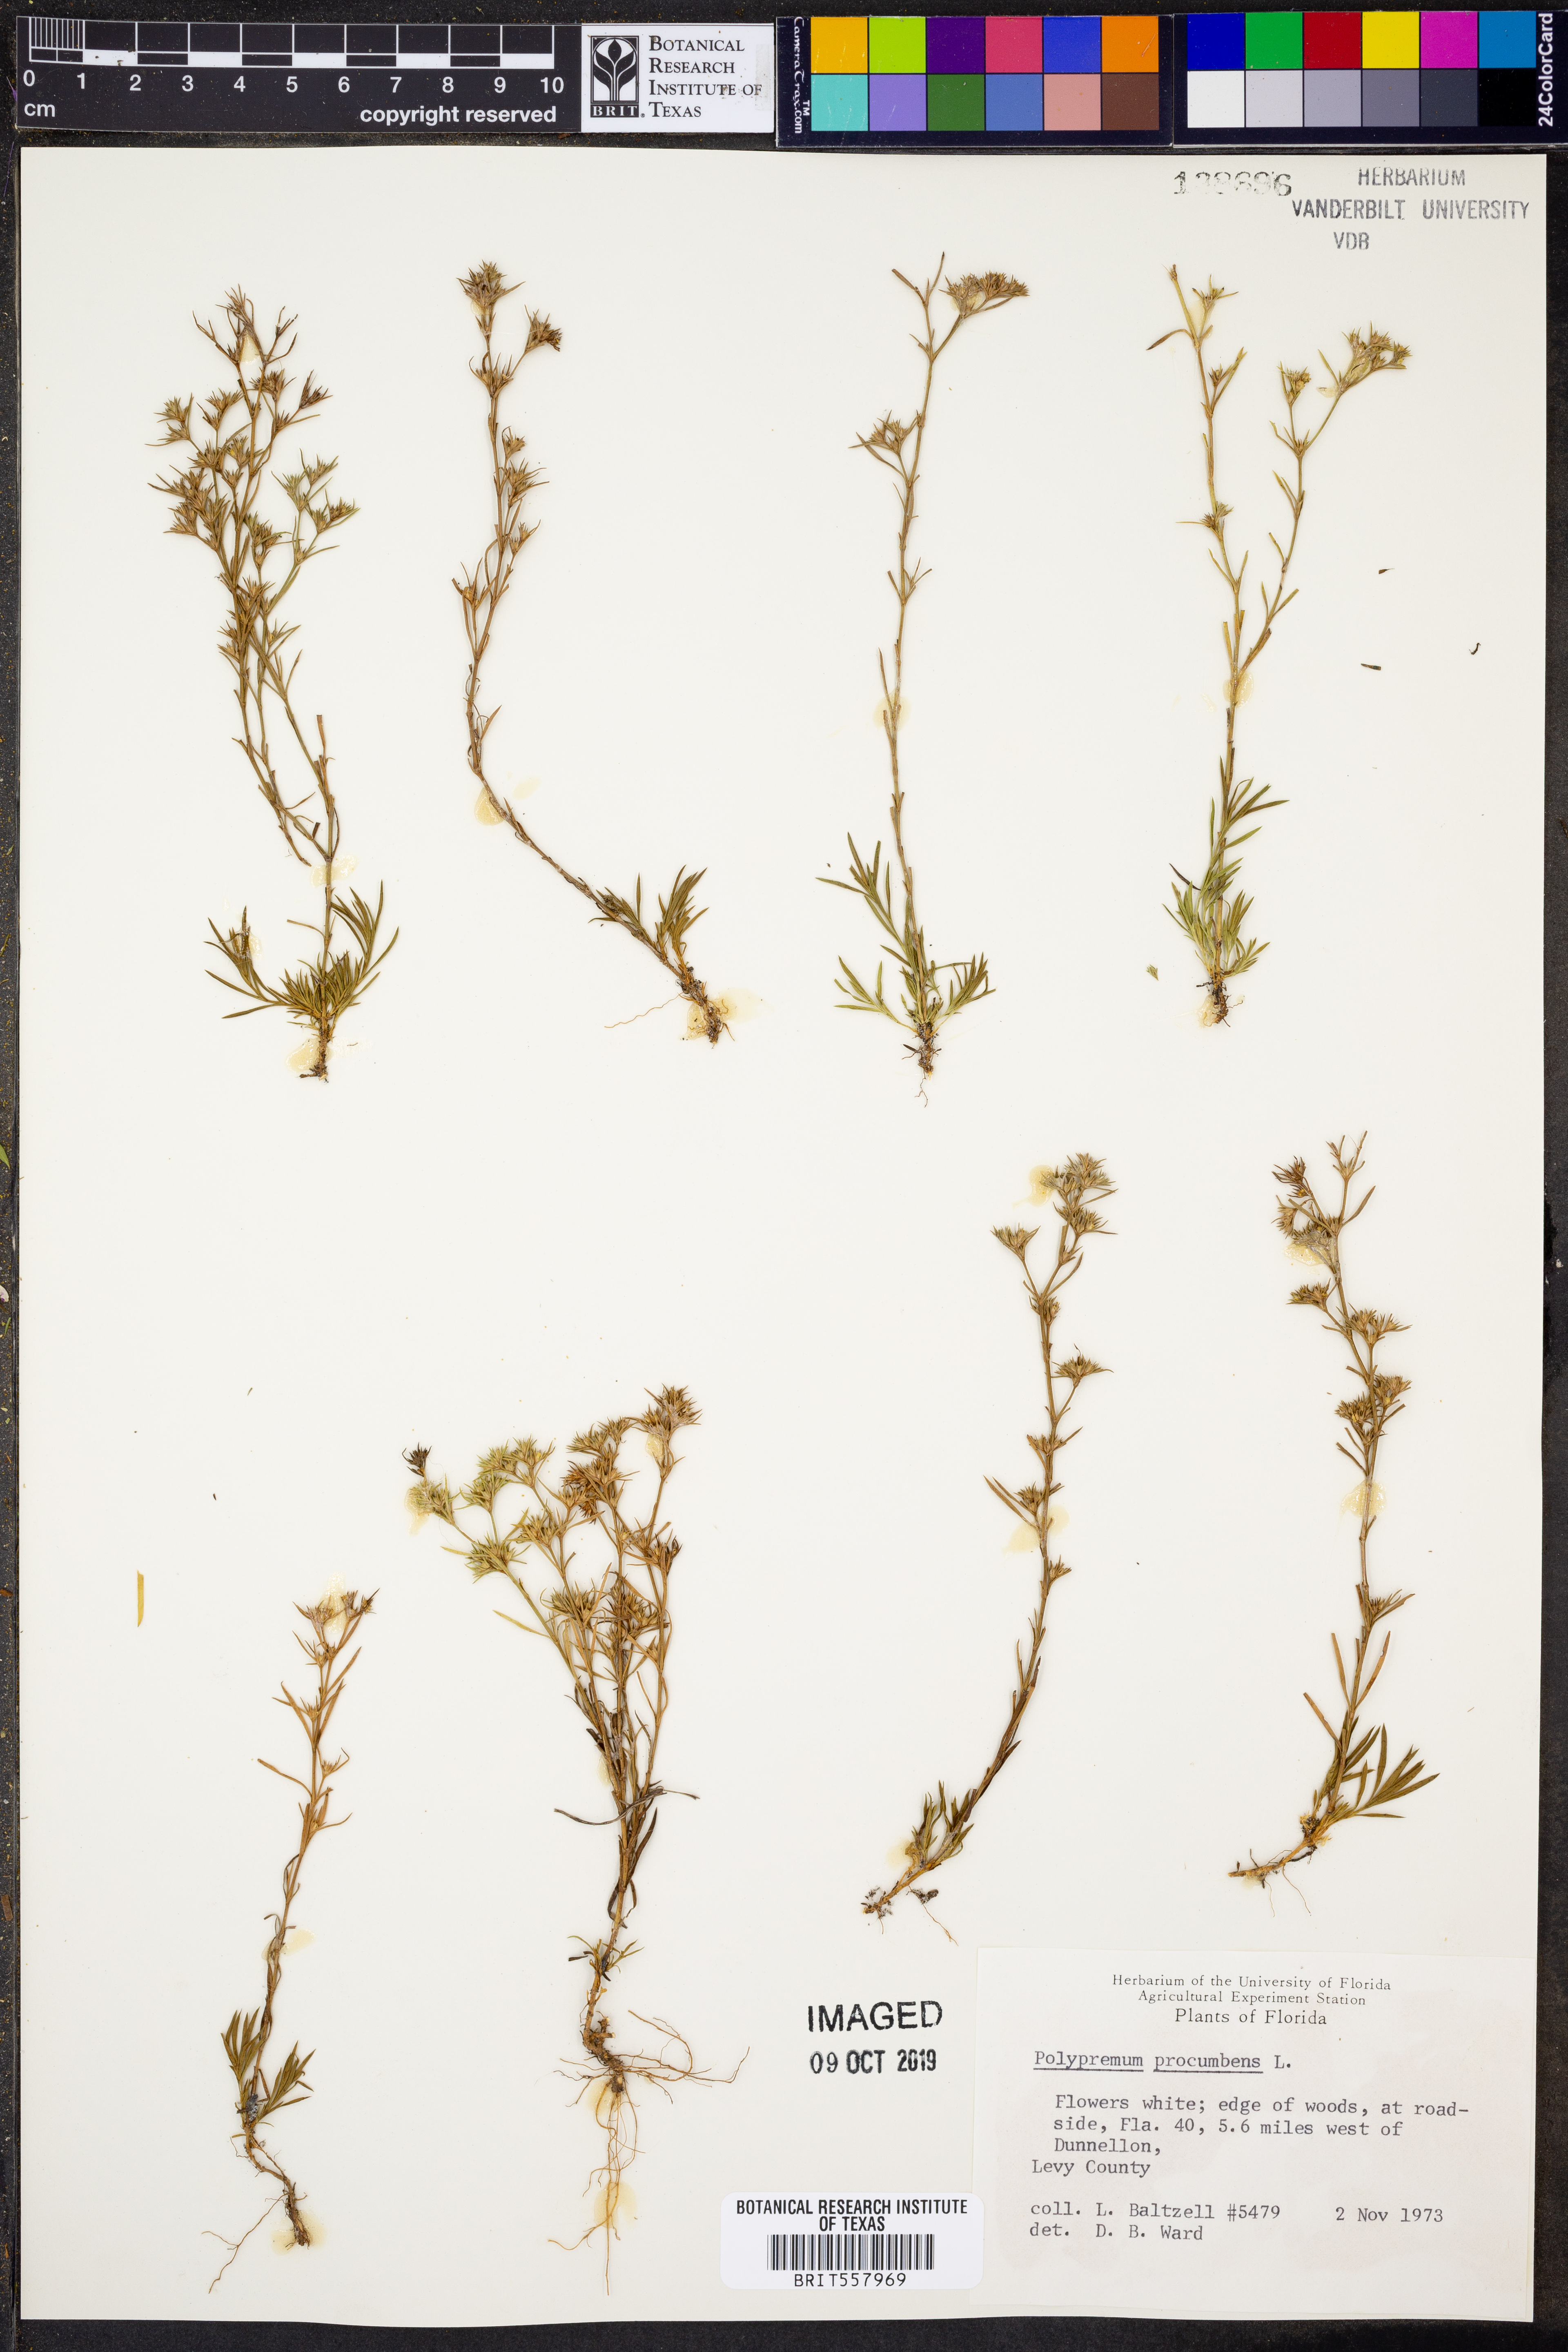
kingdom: Plantae
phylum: Tracheophyta
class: Magnoliopsida
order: Lamiales
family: Tetrachondraceae
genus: Polypremum
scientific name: Polypremum procumbens
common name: Juniper-leaf
